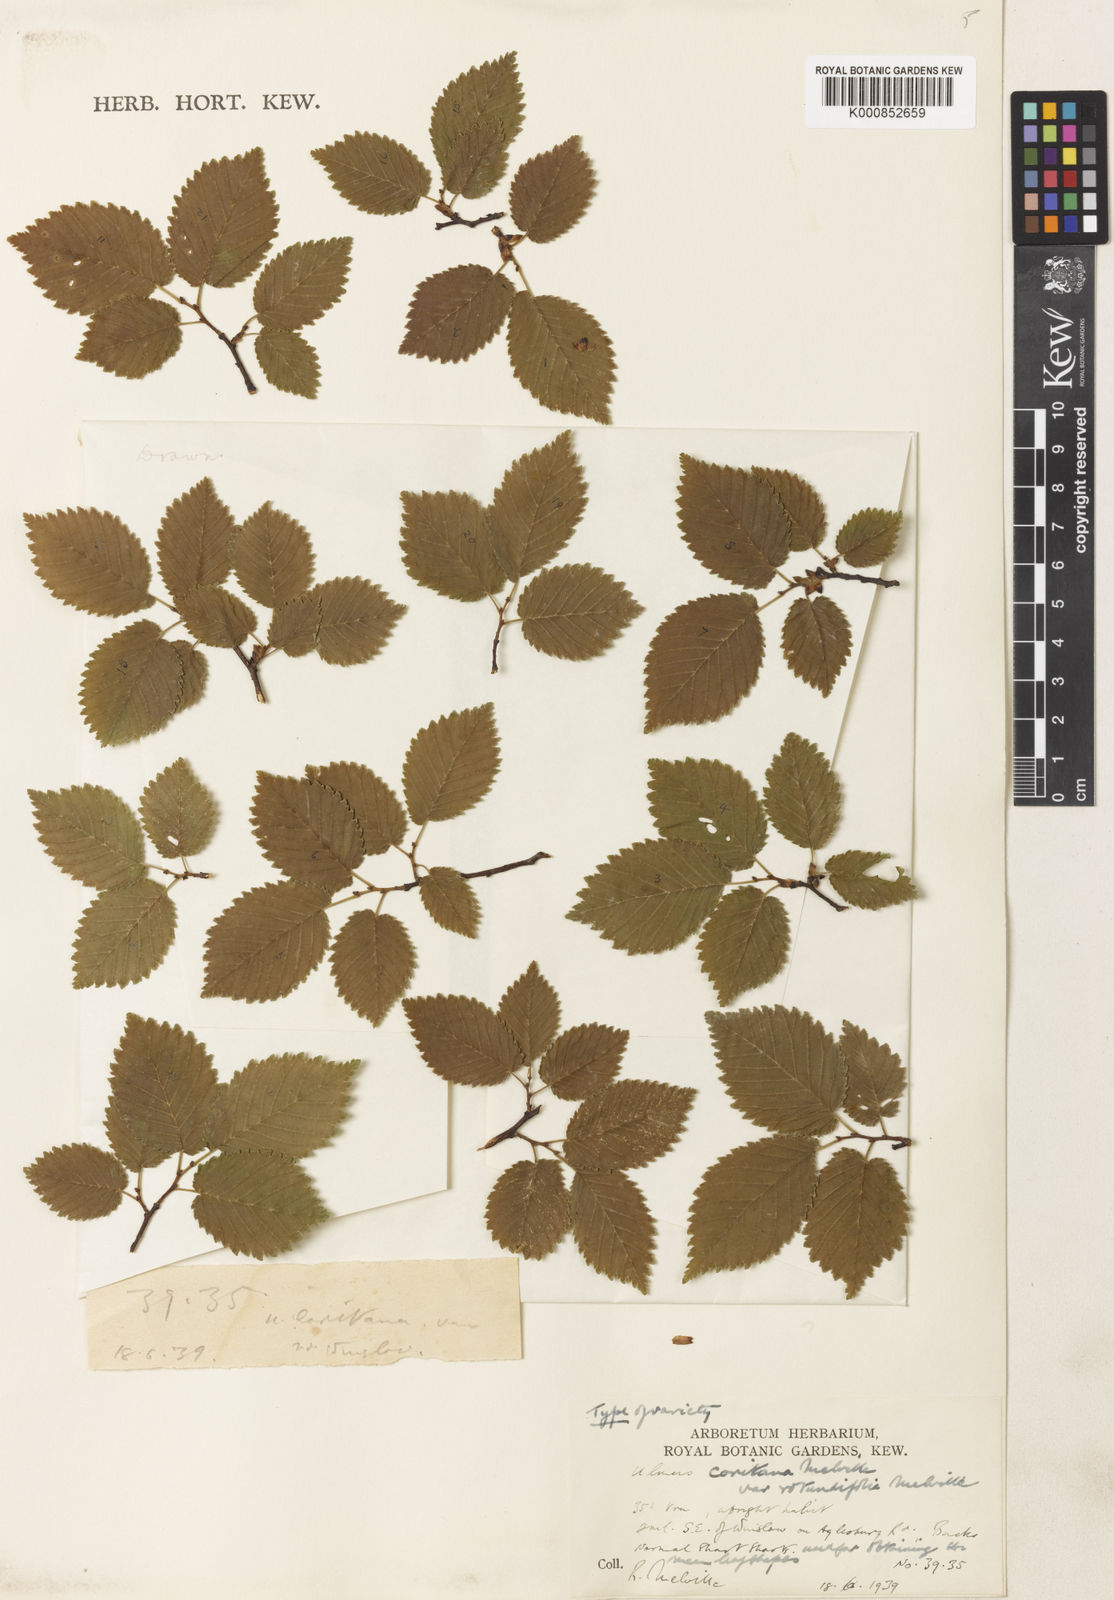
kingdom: Plantae
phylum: Tracheophyta
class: Magnoliopsida
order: Rosales
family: Ulmaceae
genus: Ulmus
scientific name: Ulmus minor
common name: Small-leaved elm
